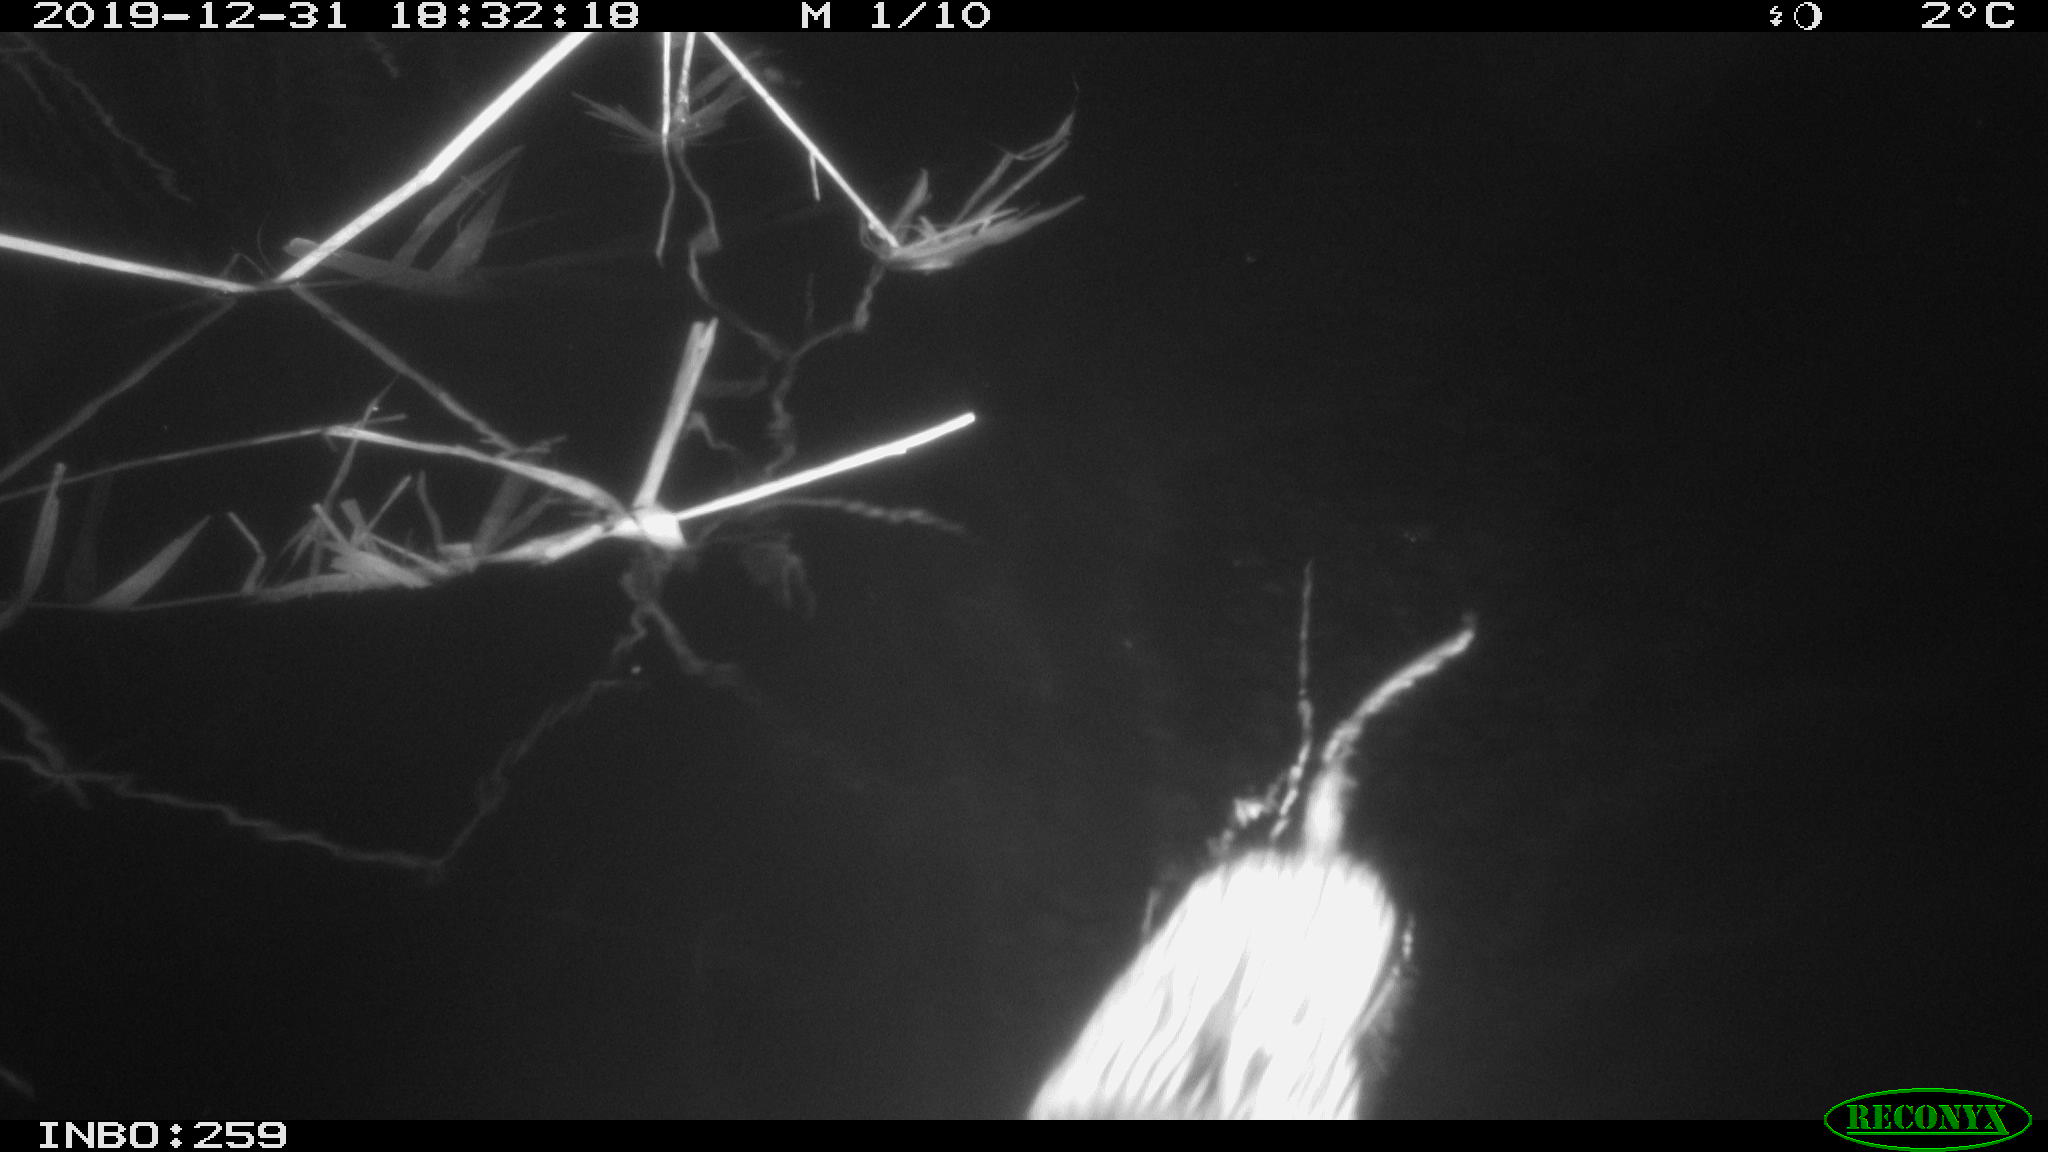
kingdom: Animalia
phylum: Chordata
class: Mammalia
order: Rodentia
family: Cricetidae
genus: Ondatra
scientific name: Ondatra zibethicus
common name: Muskrat
